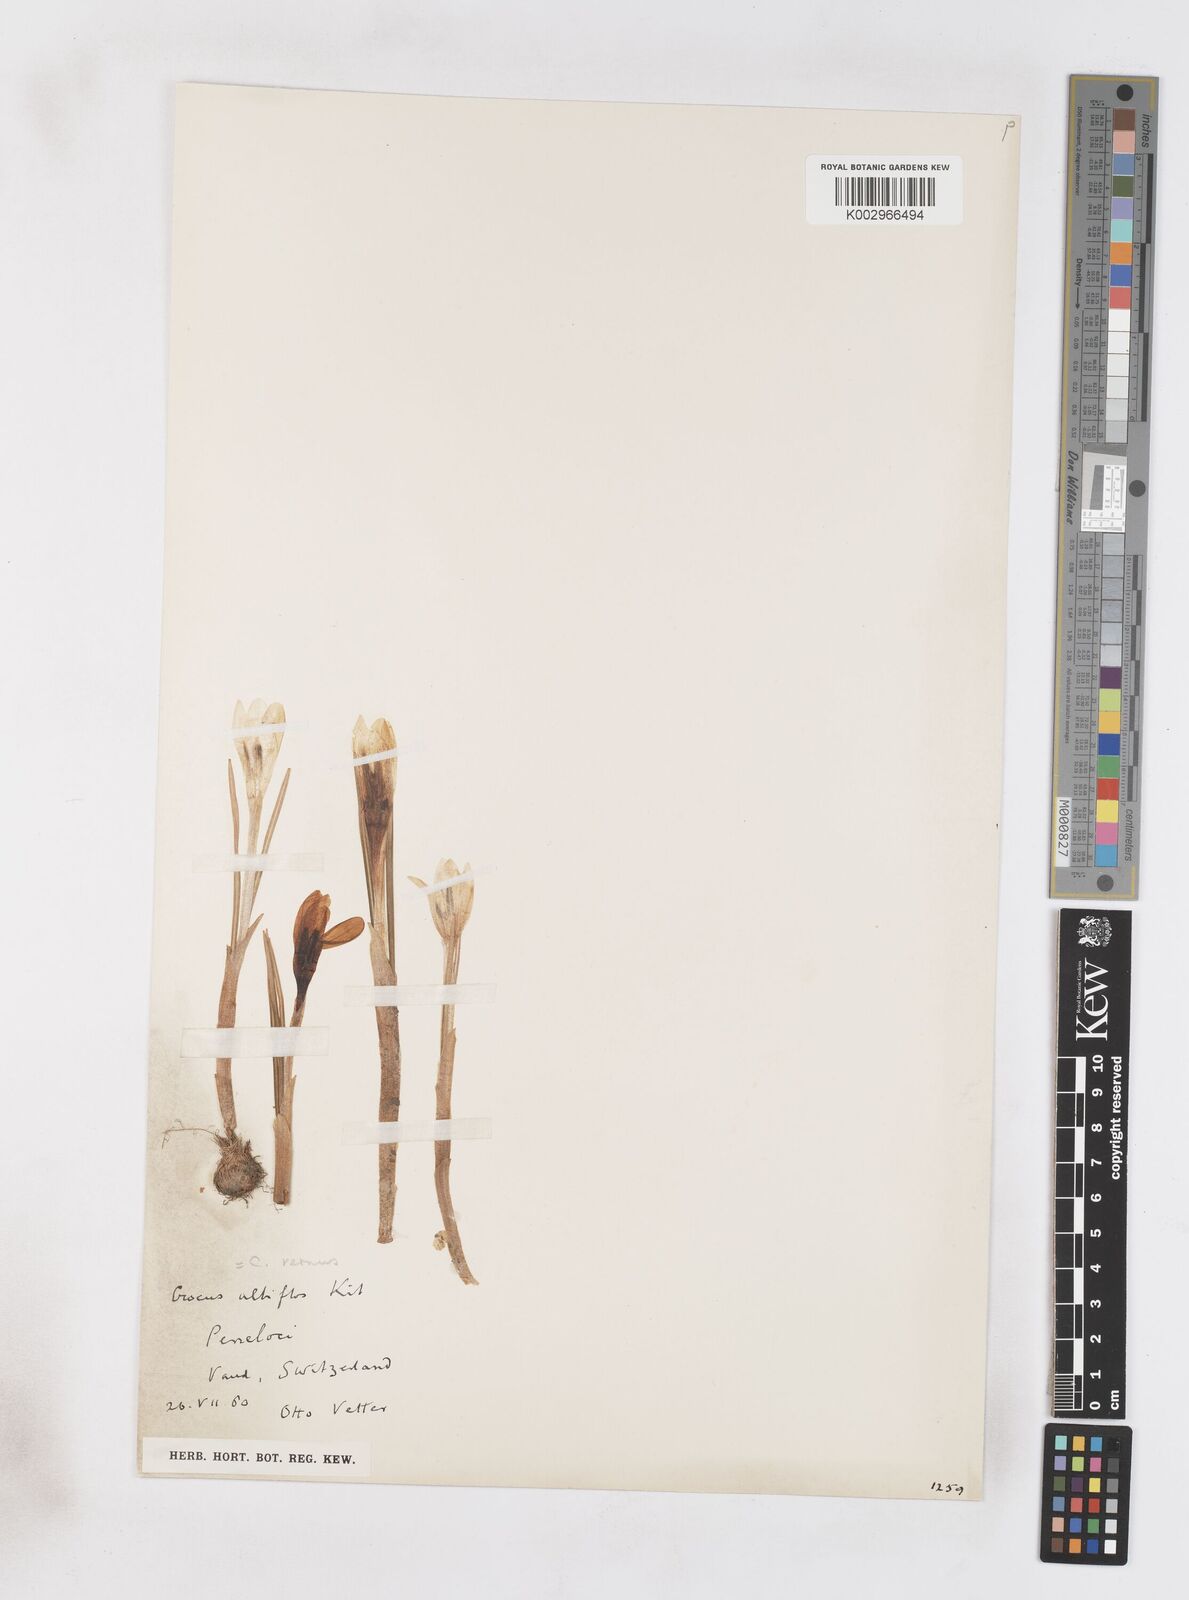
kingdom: Plantae
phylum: Tracheophyta
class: Liliopsida
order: Asparagales
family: Iridaceae
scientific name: Iridaceae
